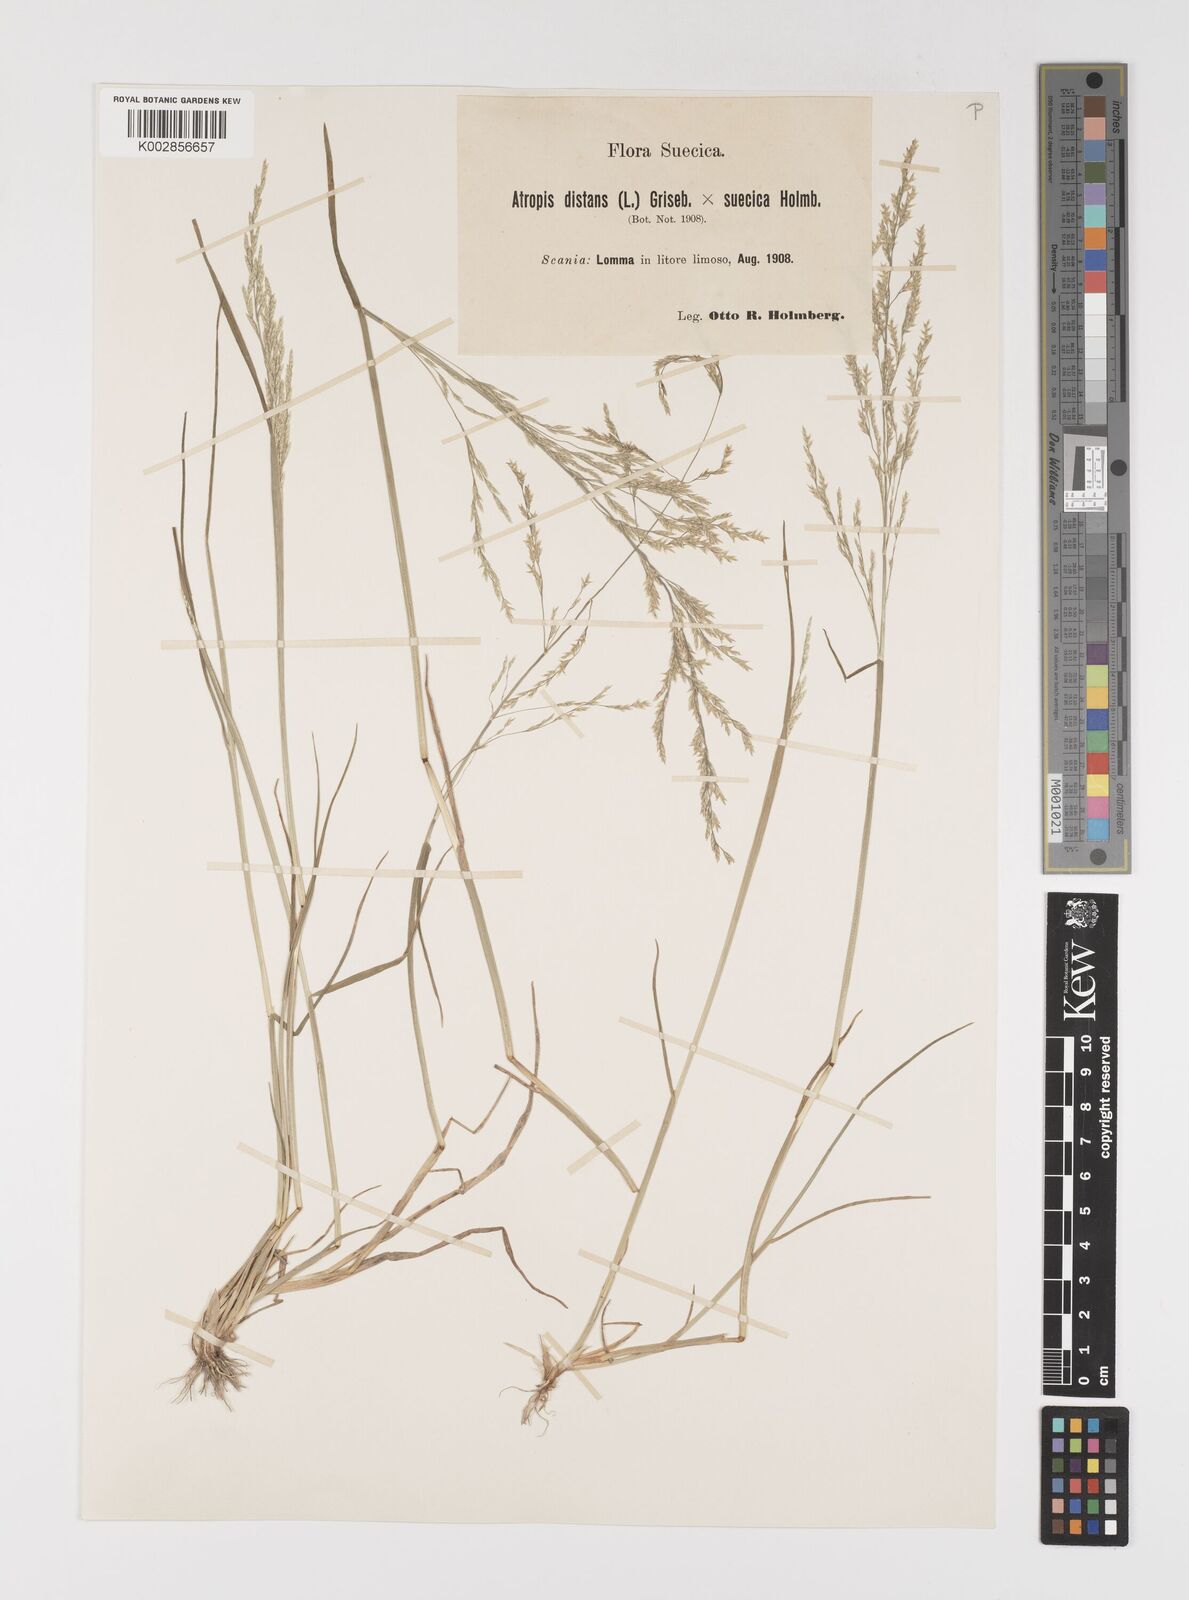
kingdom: Plantae
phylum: Tracheophyta
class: Liliopsida
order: Poales
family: Poaceae
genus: Puccinellia
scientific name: Puccinellia
